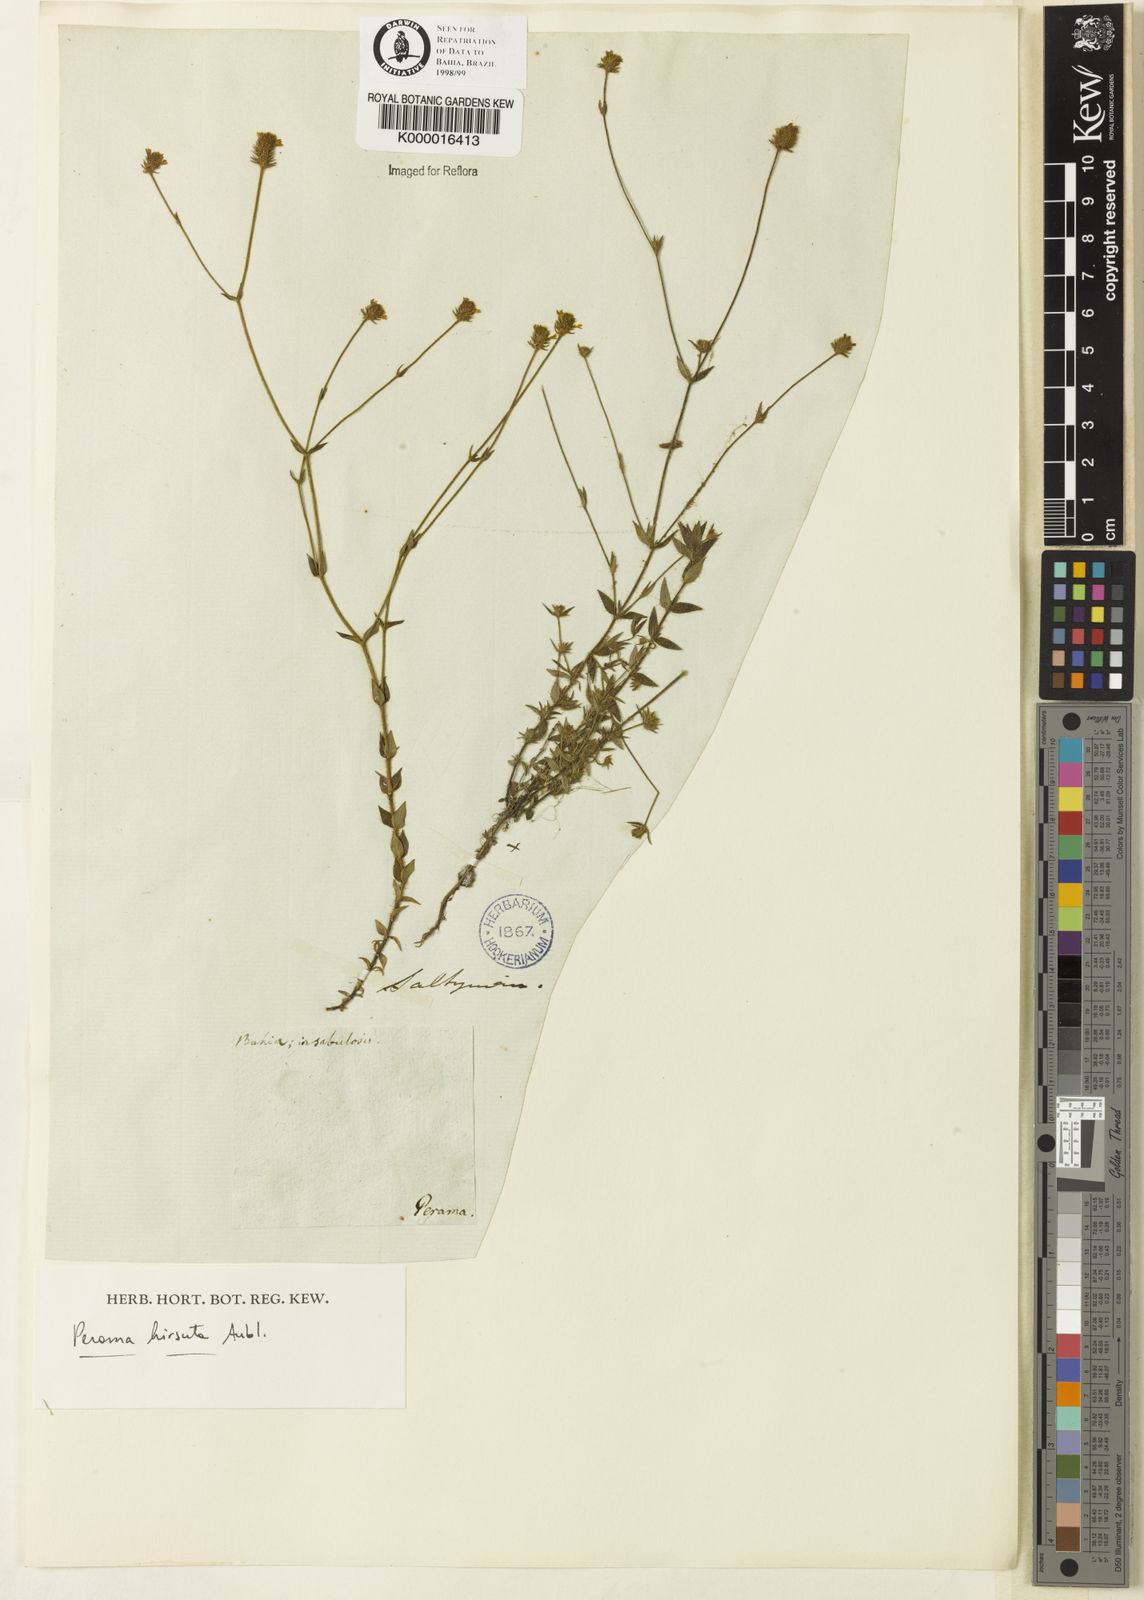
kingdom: Plantae
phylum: Tracheophyta
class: Magnoliopsida
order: Gentianales
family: Rubiaceae
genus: Perama
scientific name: Perama hirsuta
